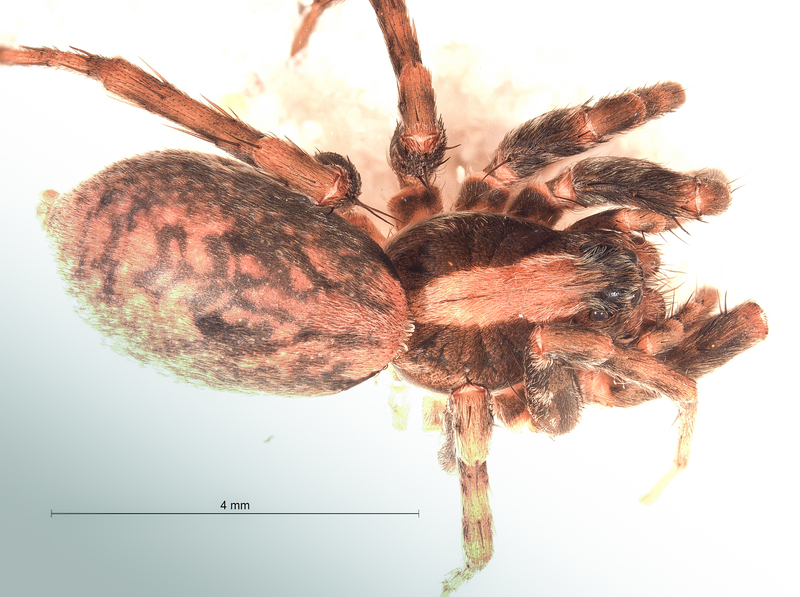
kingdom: Animalia
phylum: Arthropoda
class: Arachnida
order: Araneae
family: Lycosidae
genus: Xerolycosa
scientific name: Xerolycosa nemoralis
